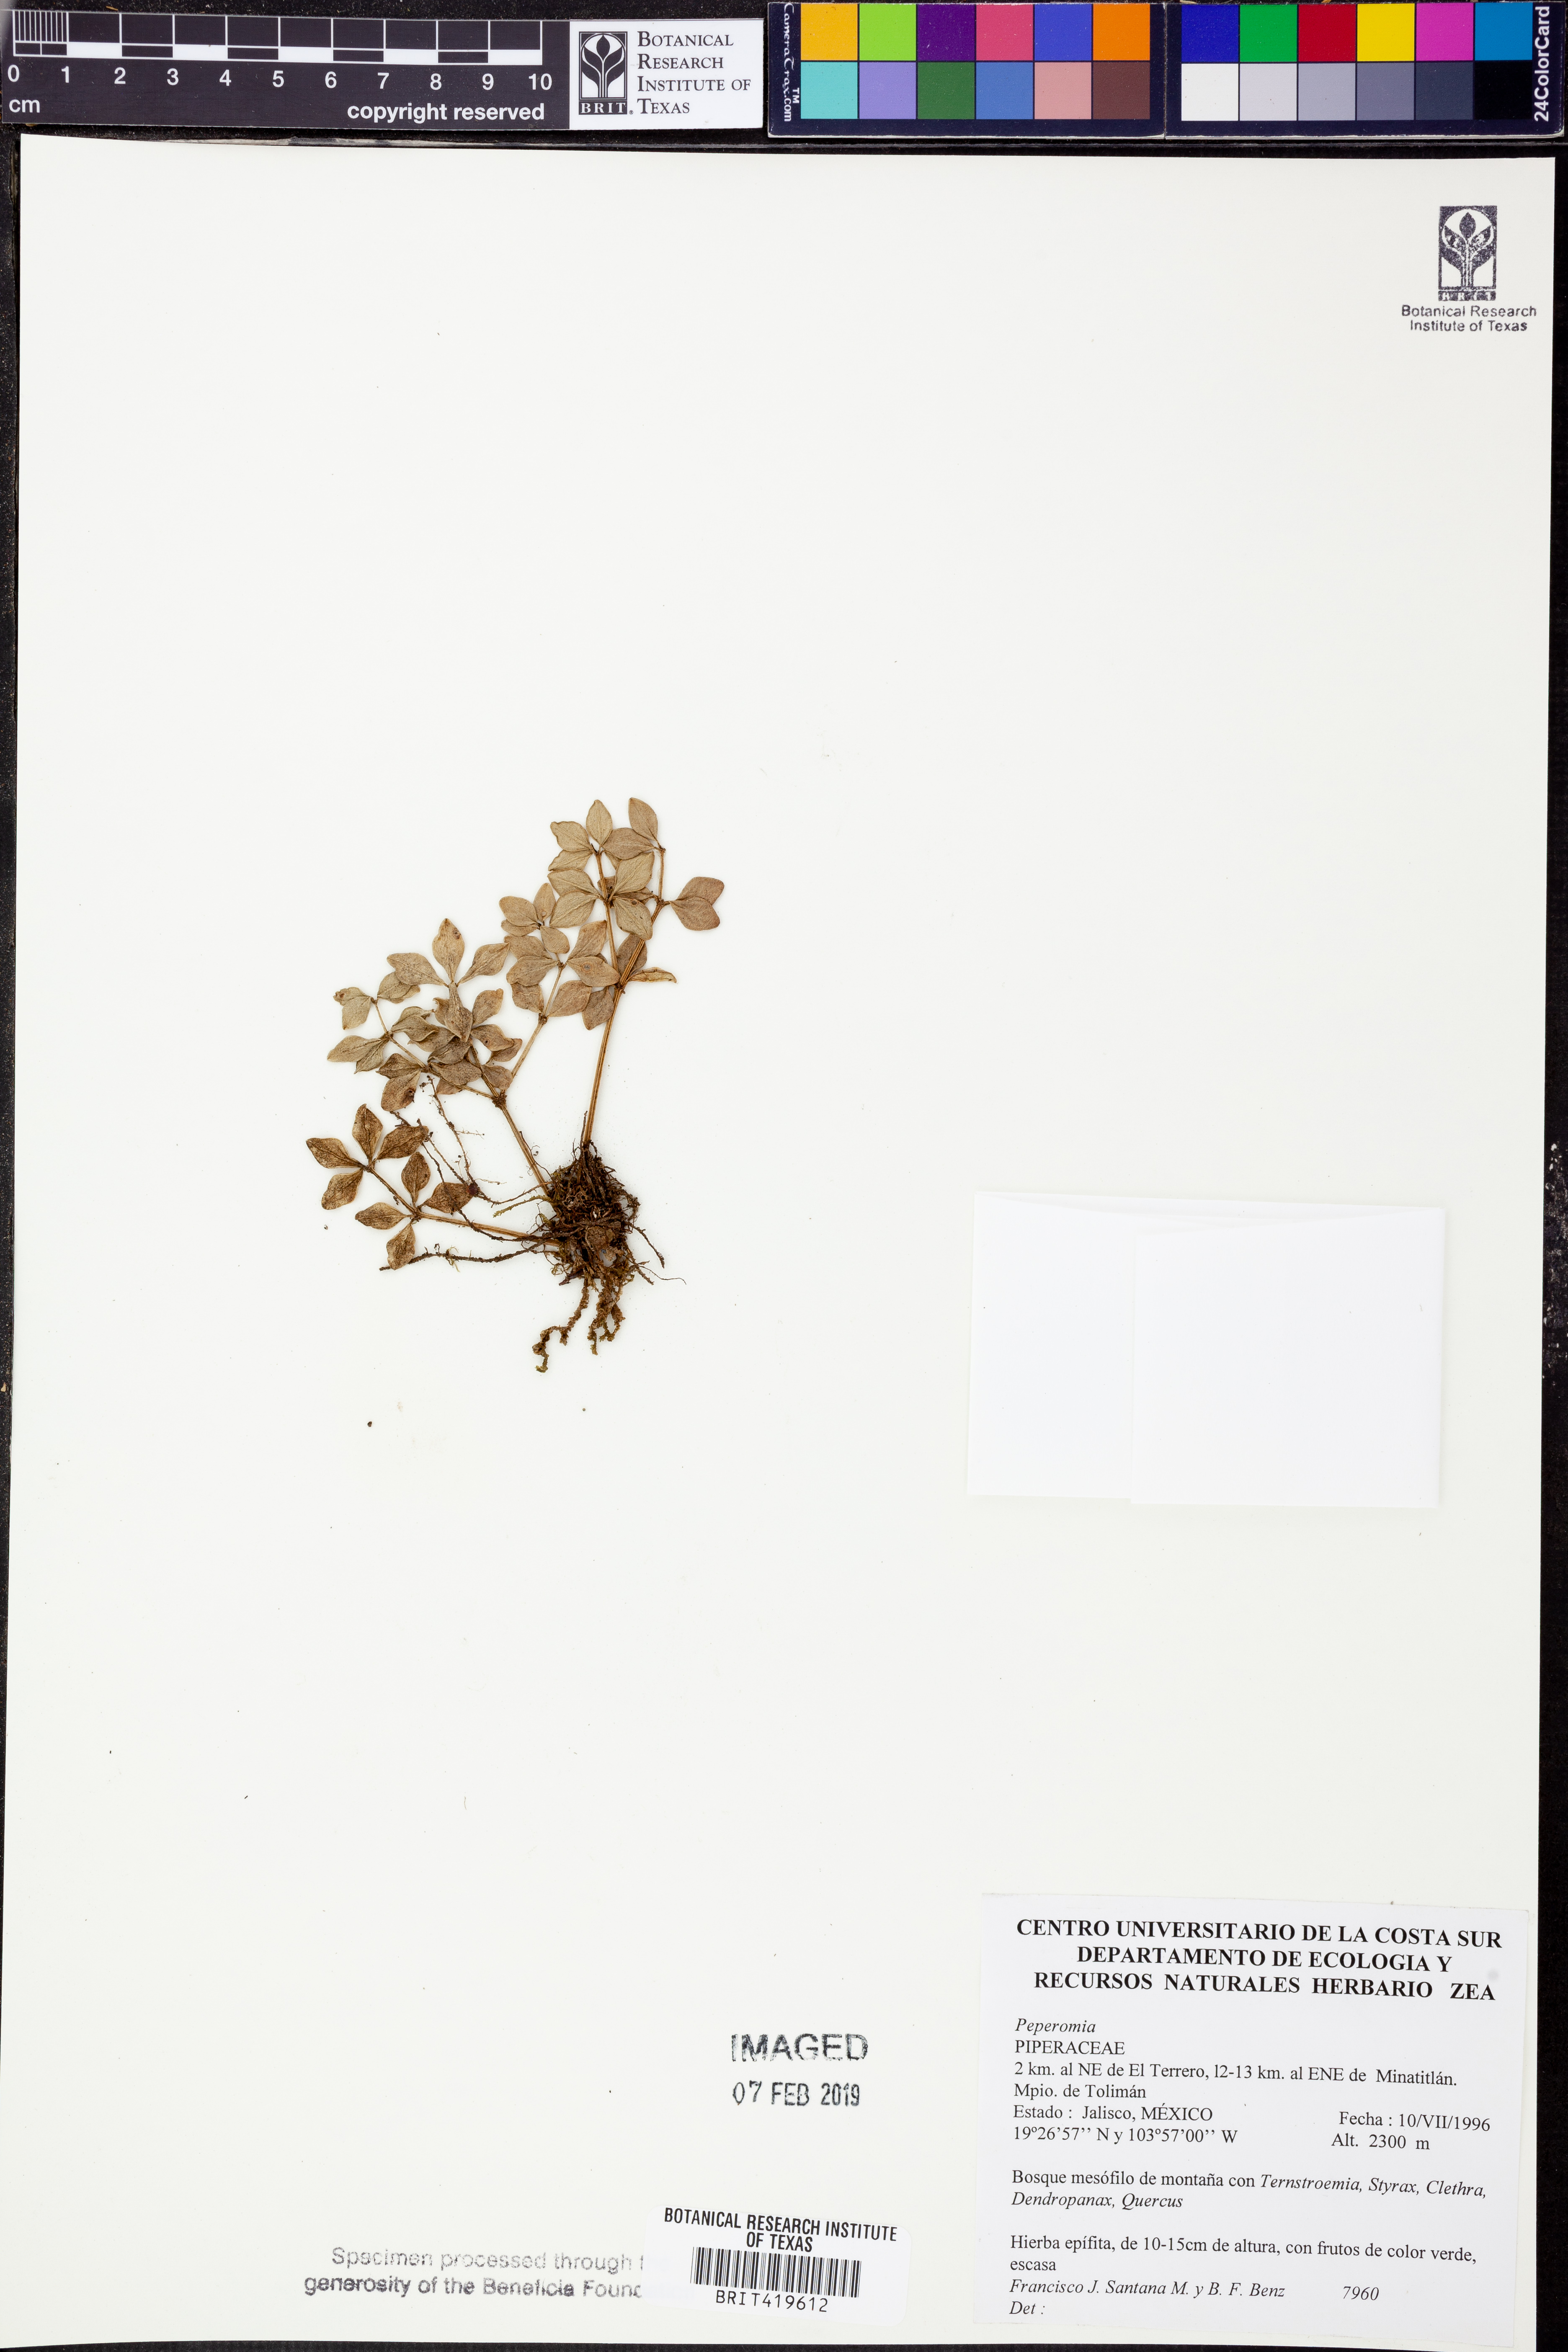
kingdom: Plantae
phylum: Tracheophyta
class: Magnoliopsida
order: Piperales
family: Piperaceae
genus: Peperomia
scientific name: Peperomia
